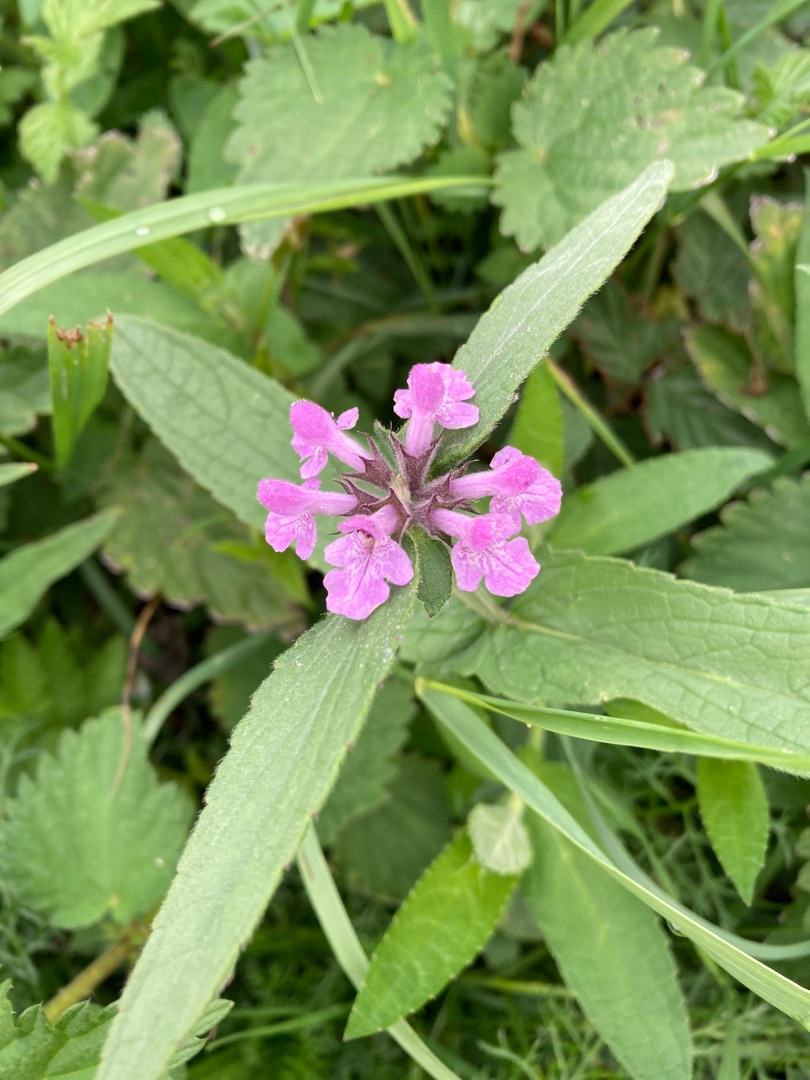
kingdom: Plantae
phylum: Tracheophyta
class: Magnoliopsida
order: Lamiales
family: Lamiaceae
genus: Stachys
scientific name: Stachys palustris
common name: Kær-galtetand
